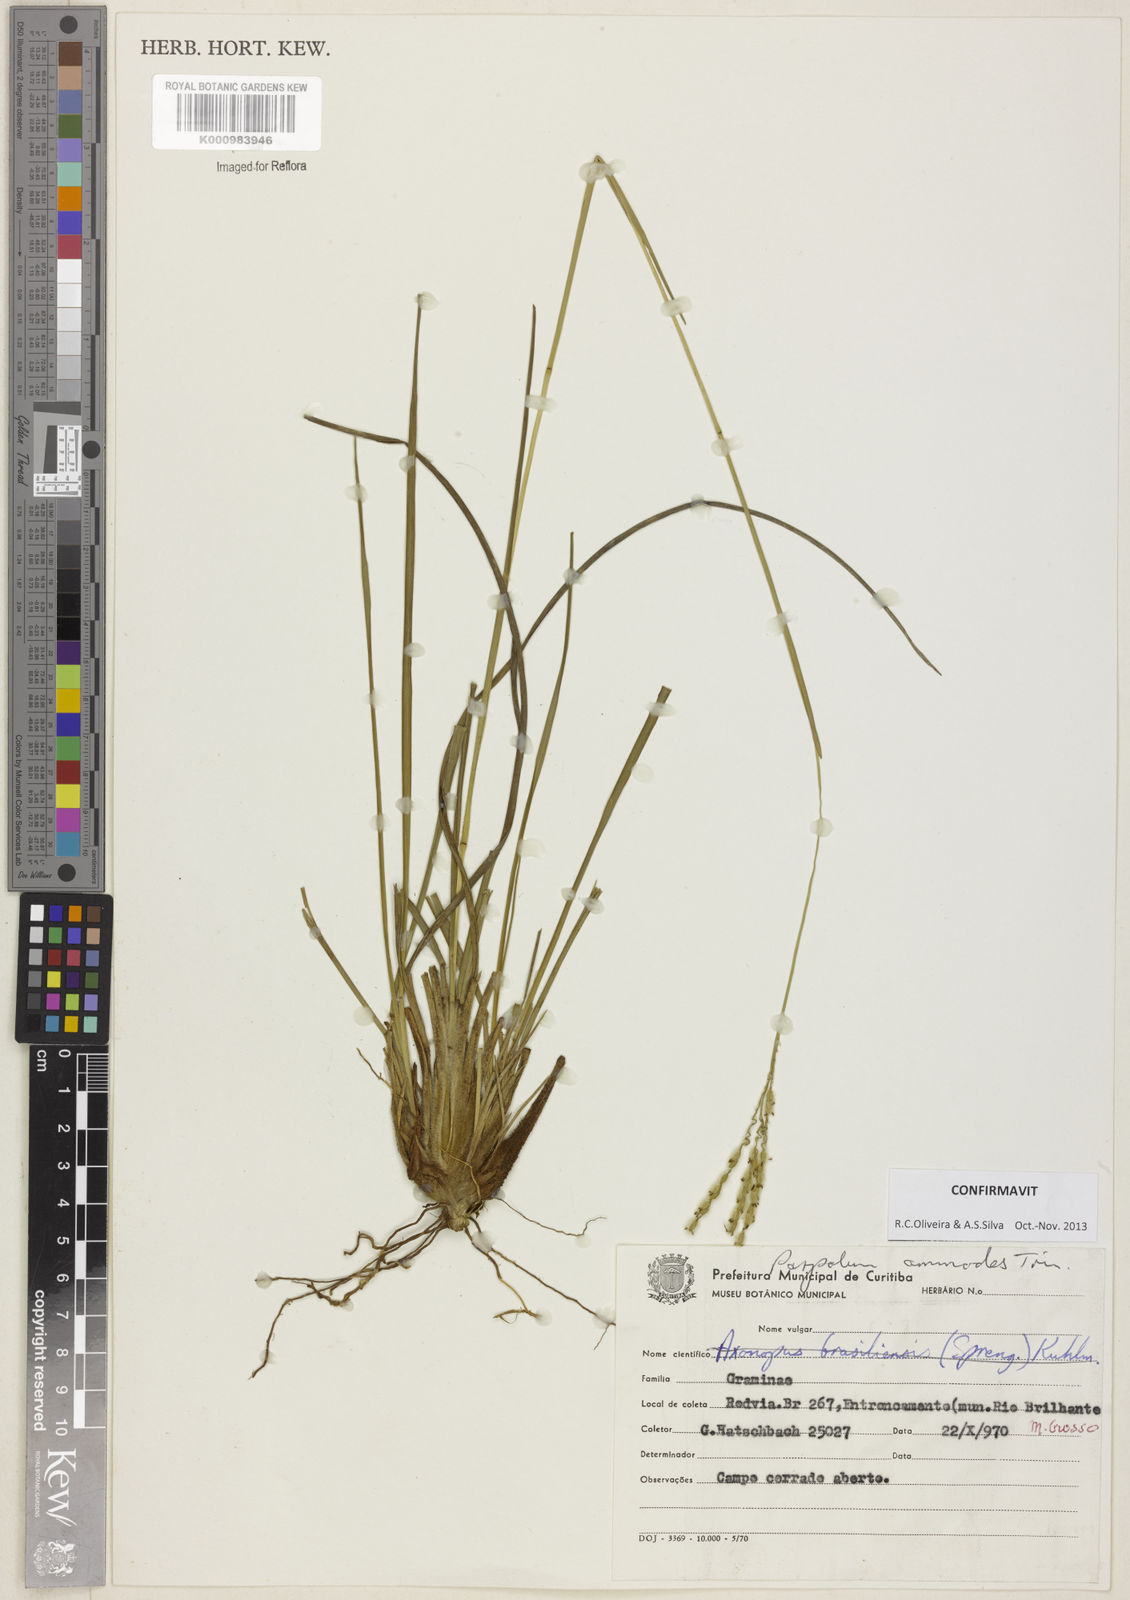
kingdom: Plantae
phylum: Tracheophyta
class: Liliopsida
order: Poales
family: Poaceae
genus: Paspalum
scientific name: Paspalum ammodes
